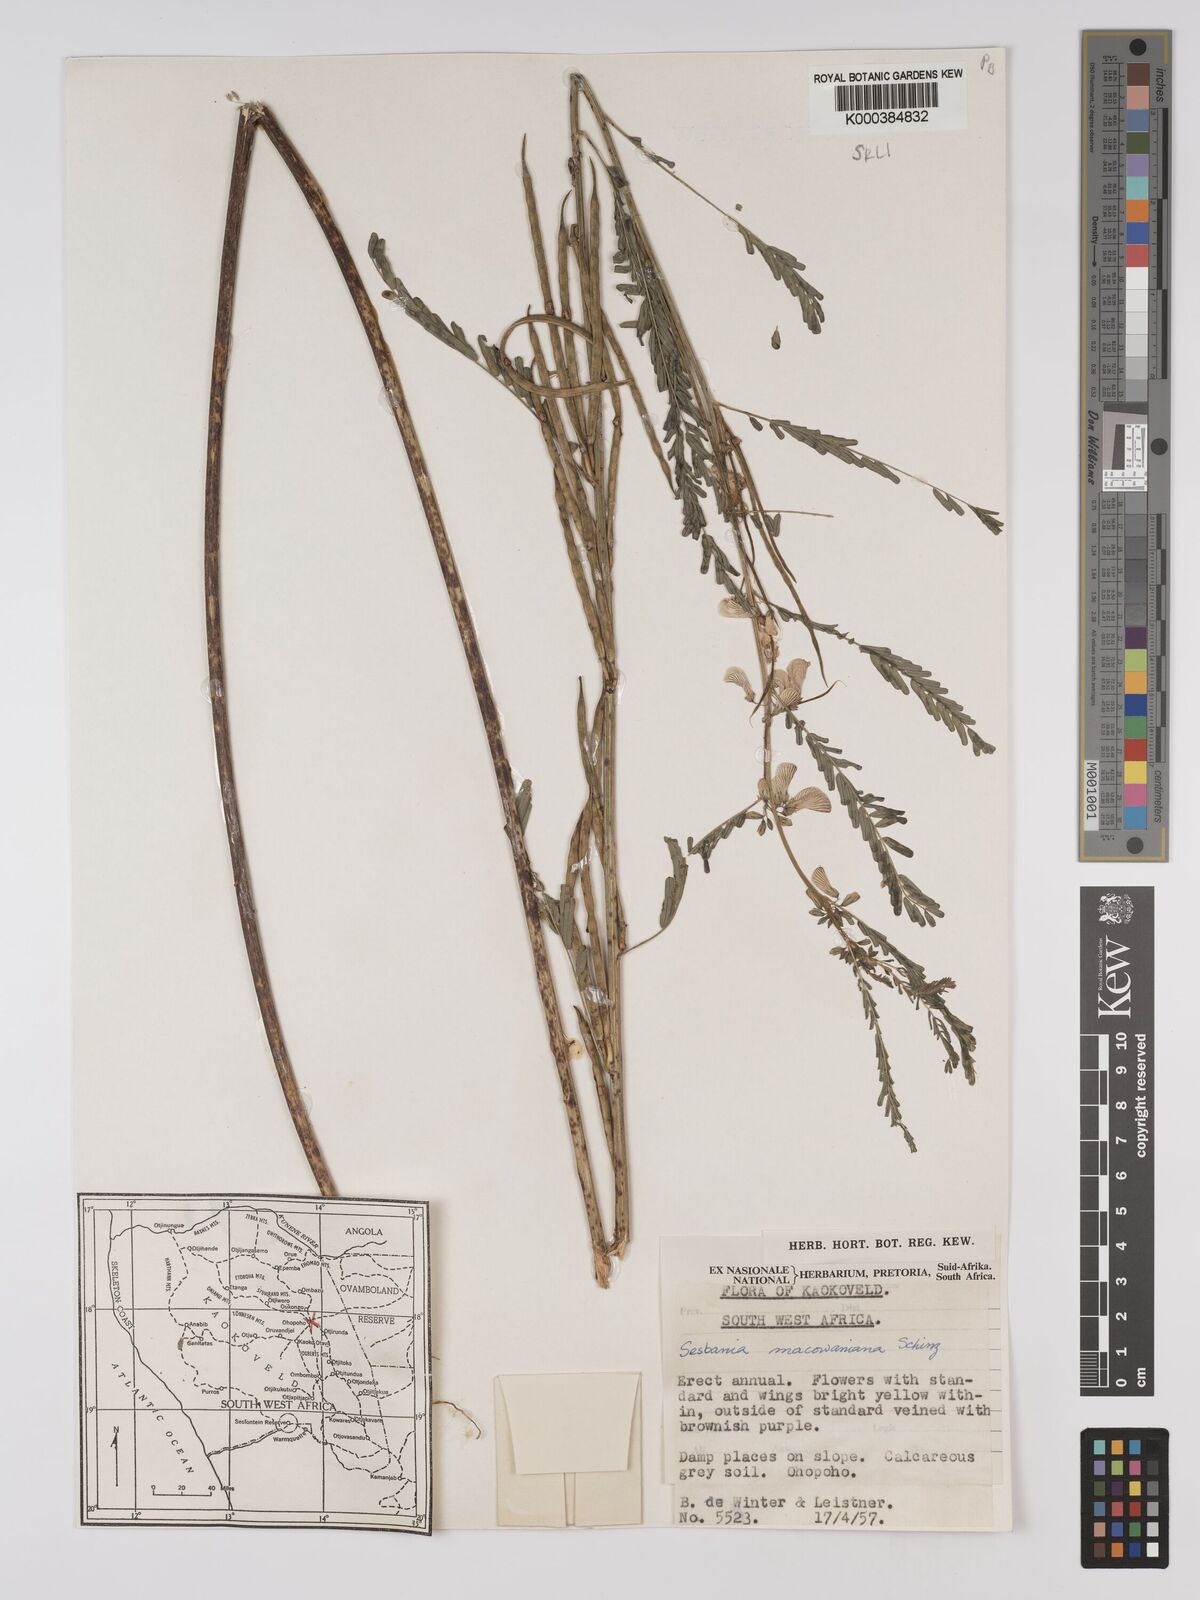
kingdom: Plantae
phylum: Tracheophyta
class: Magnoliopsida
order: Fabales
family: Fabaceae
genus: Sesbania
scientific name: Sesbania macowaniana
